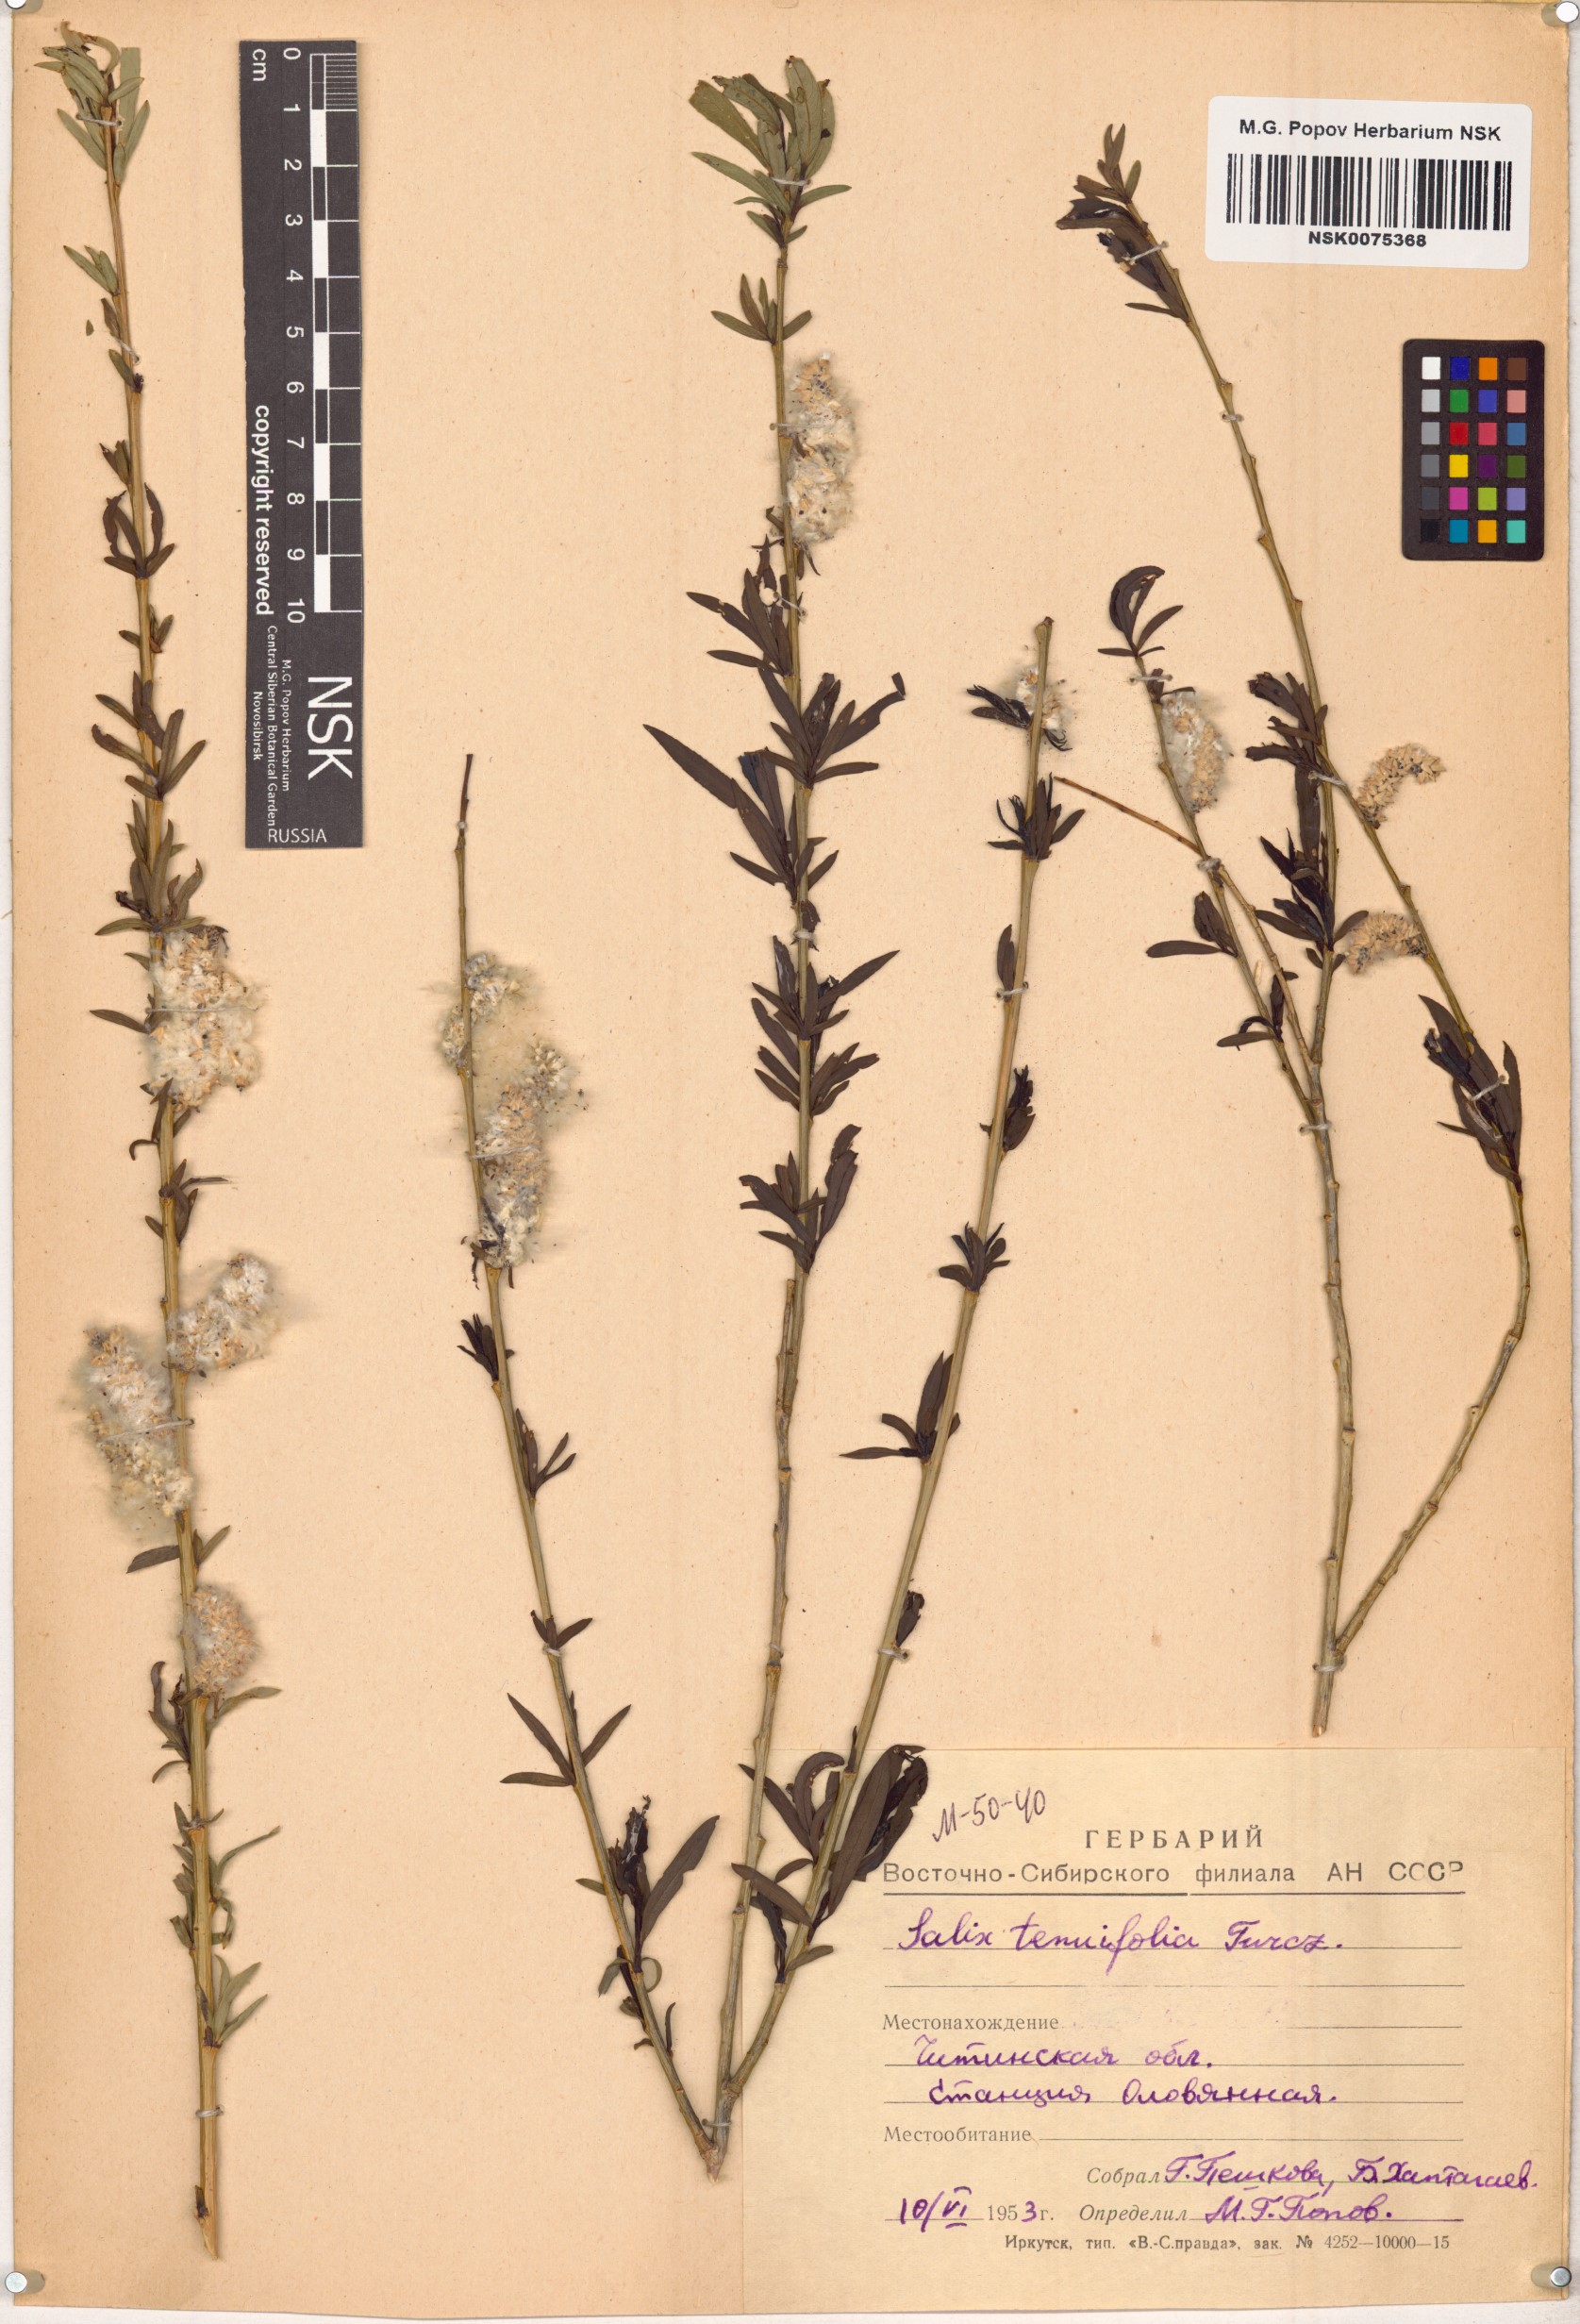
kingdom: Plantae
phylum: Tracheophyta
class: Magnoliopsida
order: Malpighiales
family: Salicaceae
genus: Salix
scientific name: Salix
